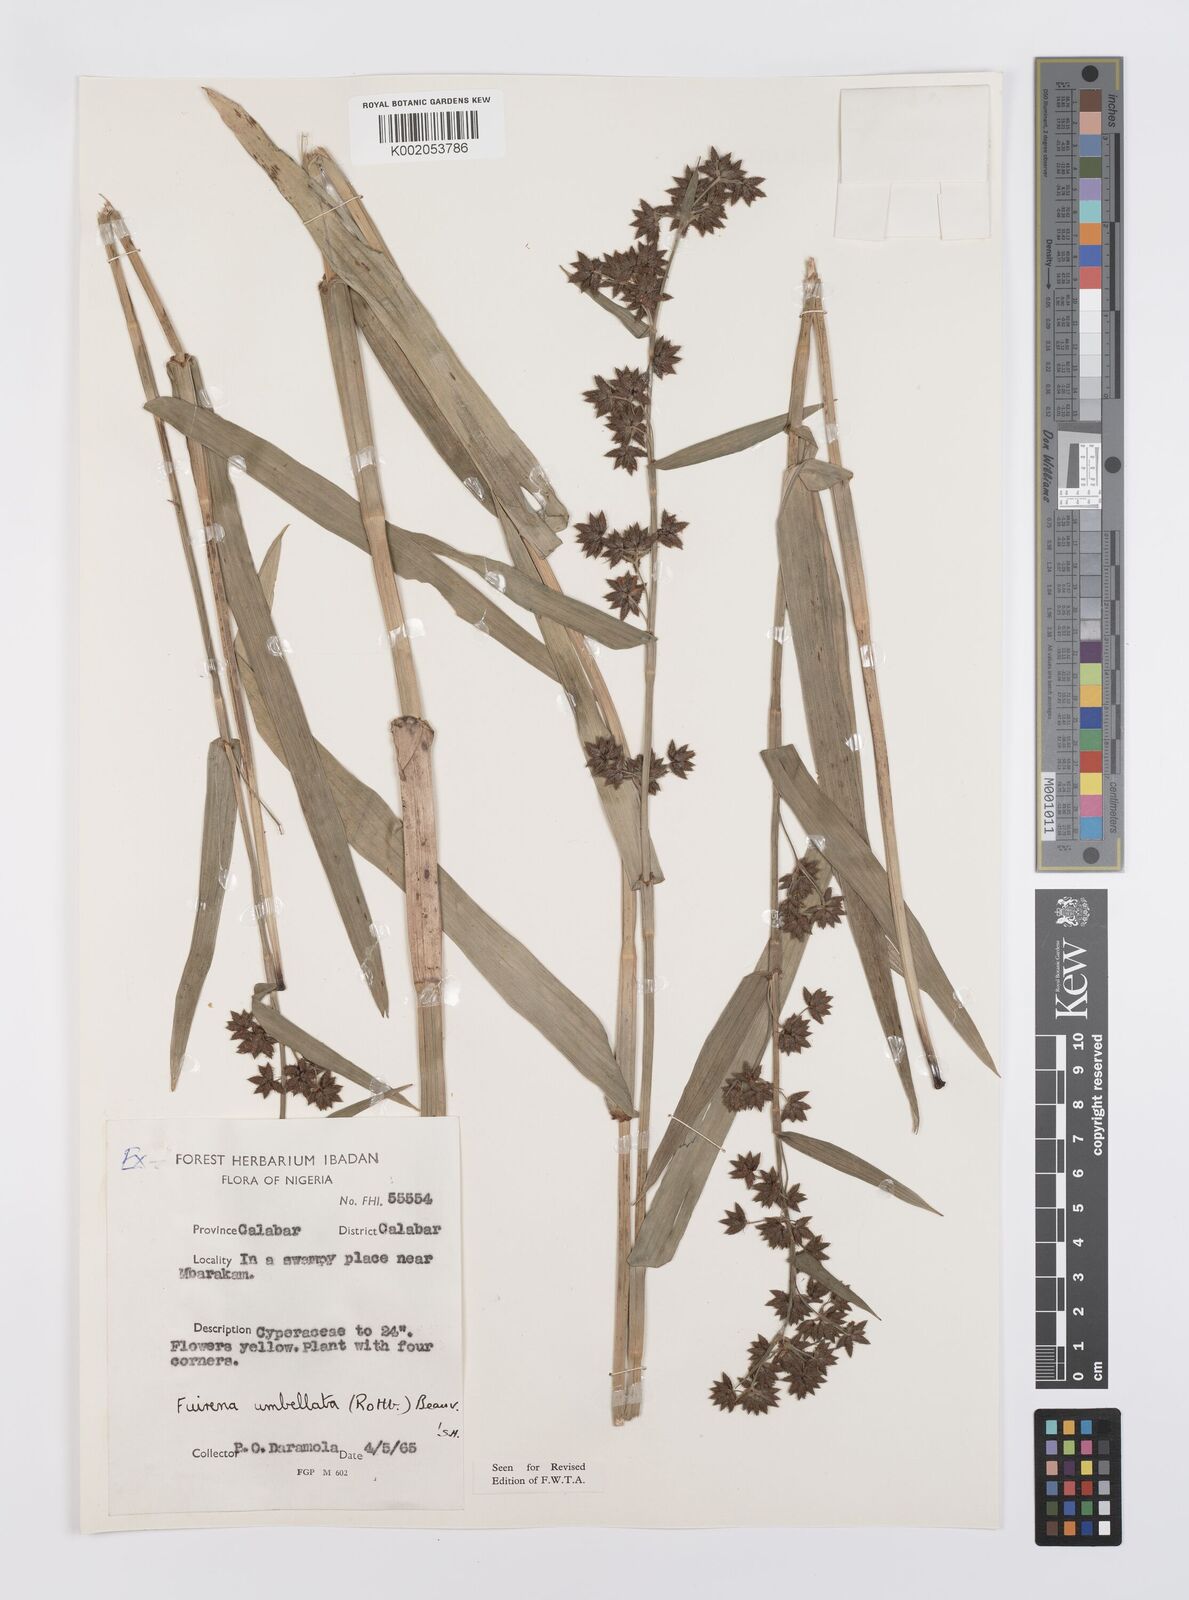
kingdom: Plantae
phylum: Tracheophyta
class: Liliopsida
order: Poales
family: Cyperaceae
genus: Fuirena
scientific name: Fuirena umbellata
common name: Yefen
